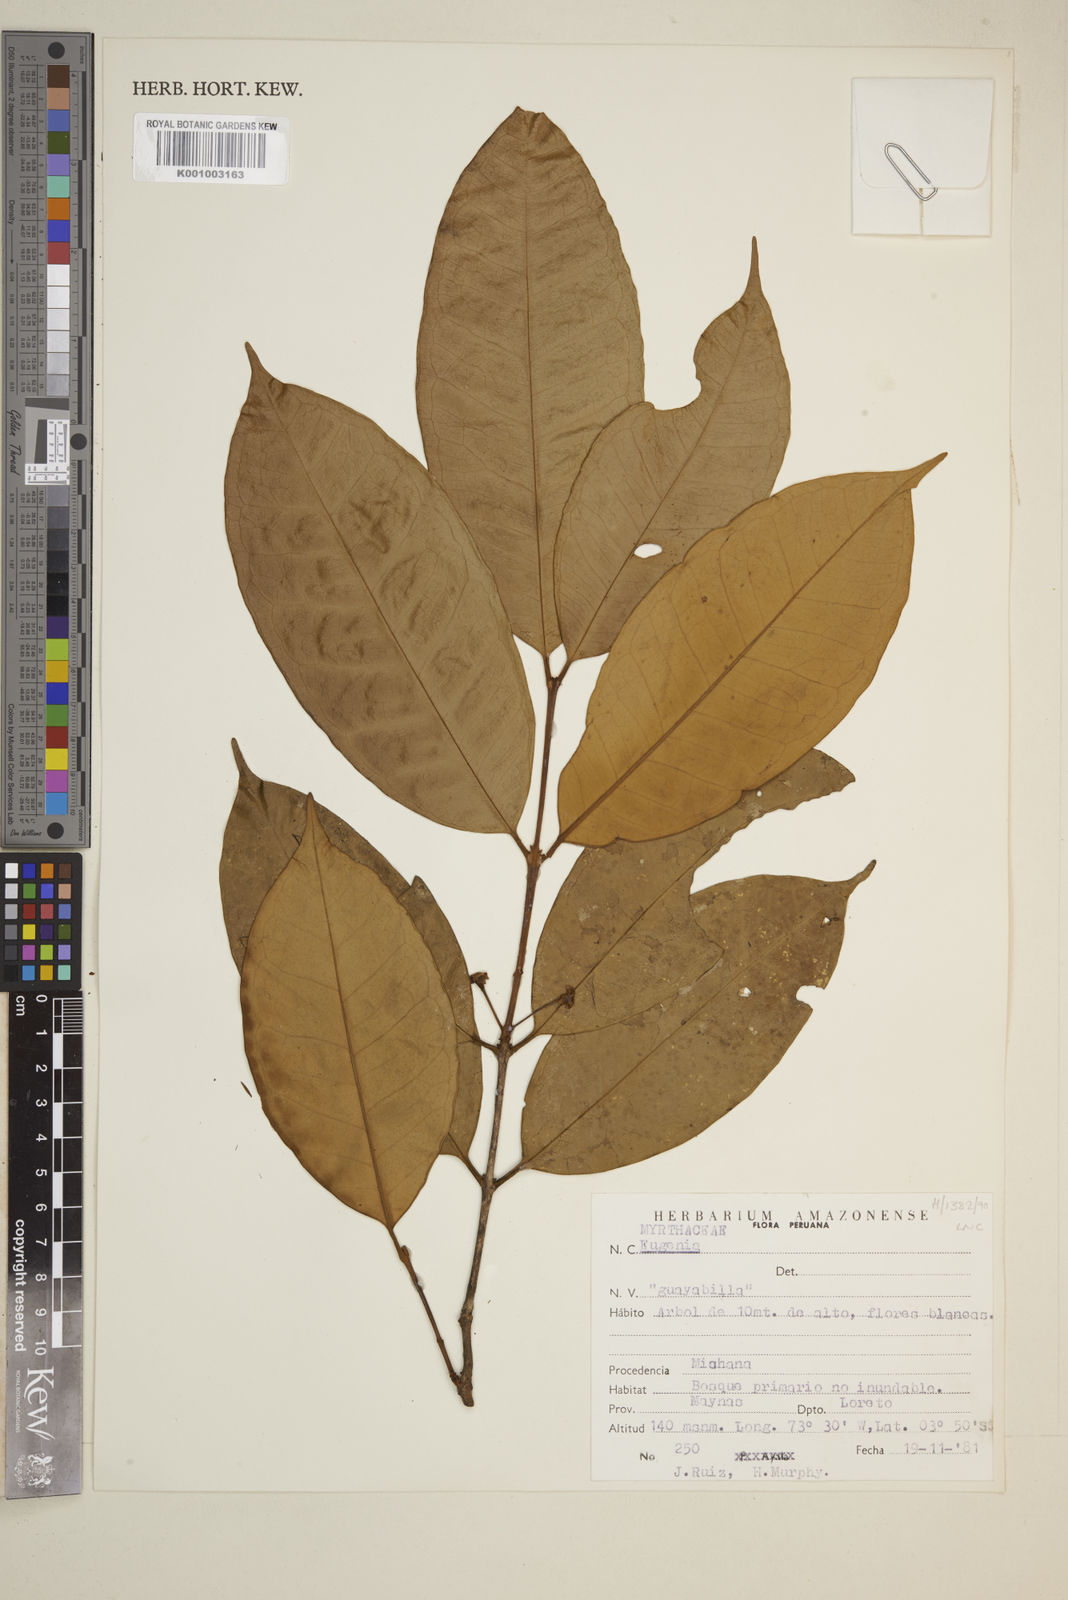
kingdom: Plantae
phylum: Tracheophyta
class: Magnoliopsida
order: Myrtales
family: Myrtaceae
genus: Eugenia
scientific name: Eugenia
